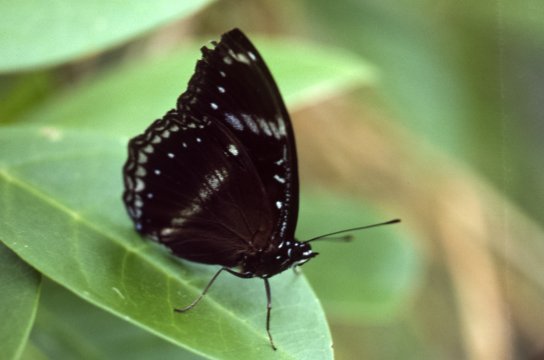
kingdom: Animalia
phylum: Arthropoda
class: Insecta
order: Lepidoptera
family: Nymphalidae
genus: Euploea
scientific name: Euploea lewinii
